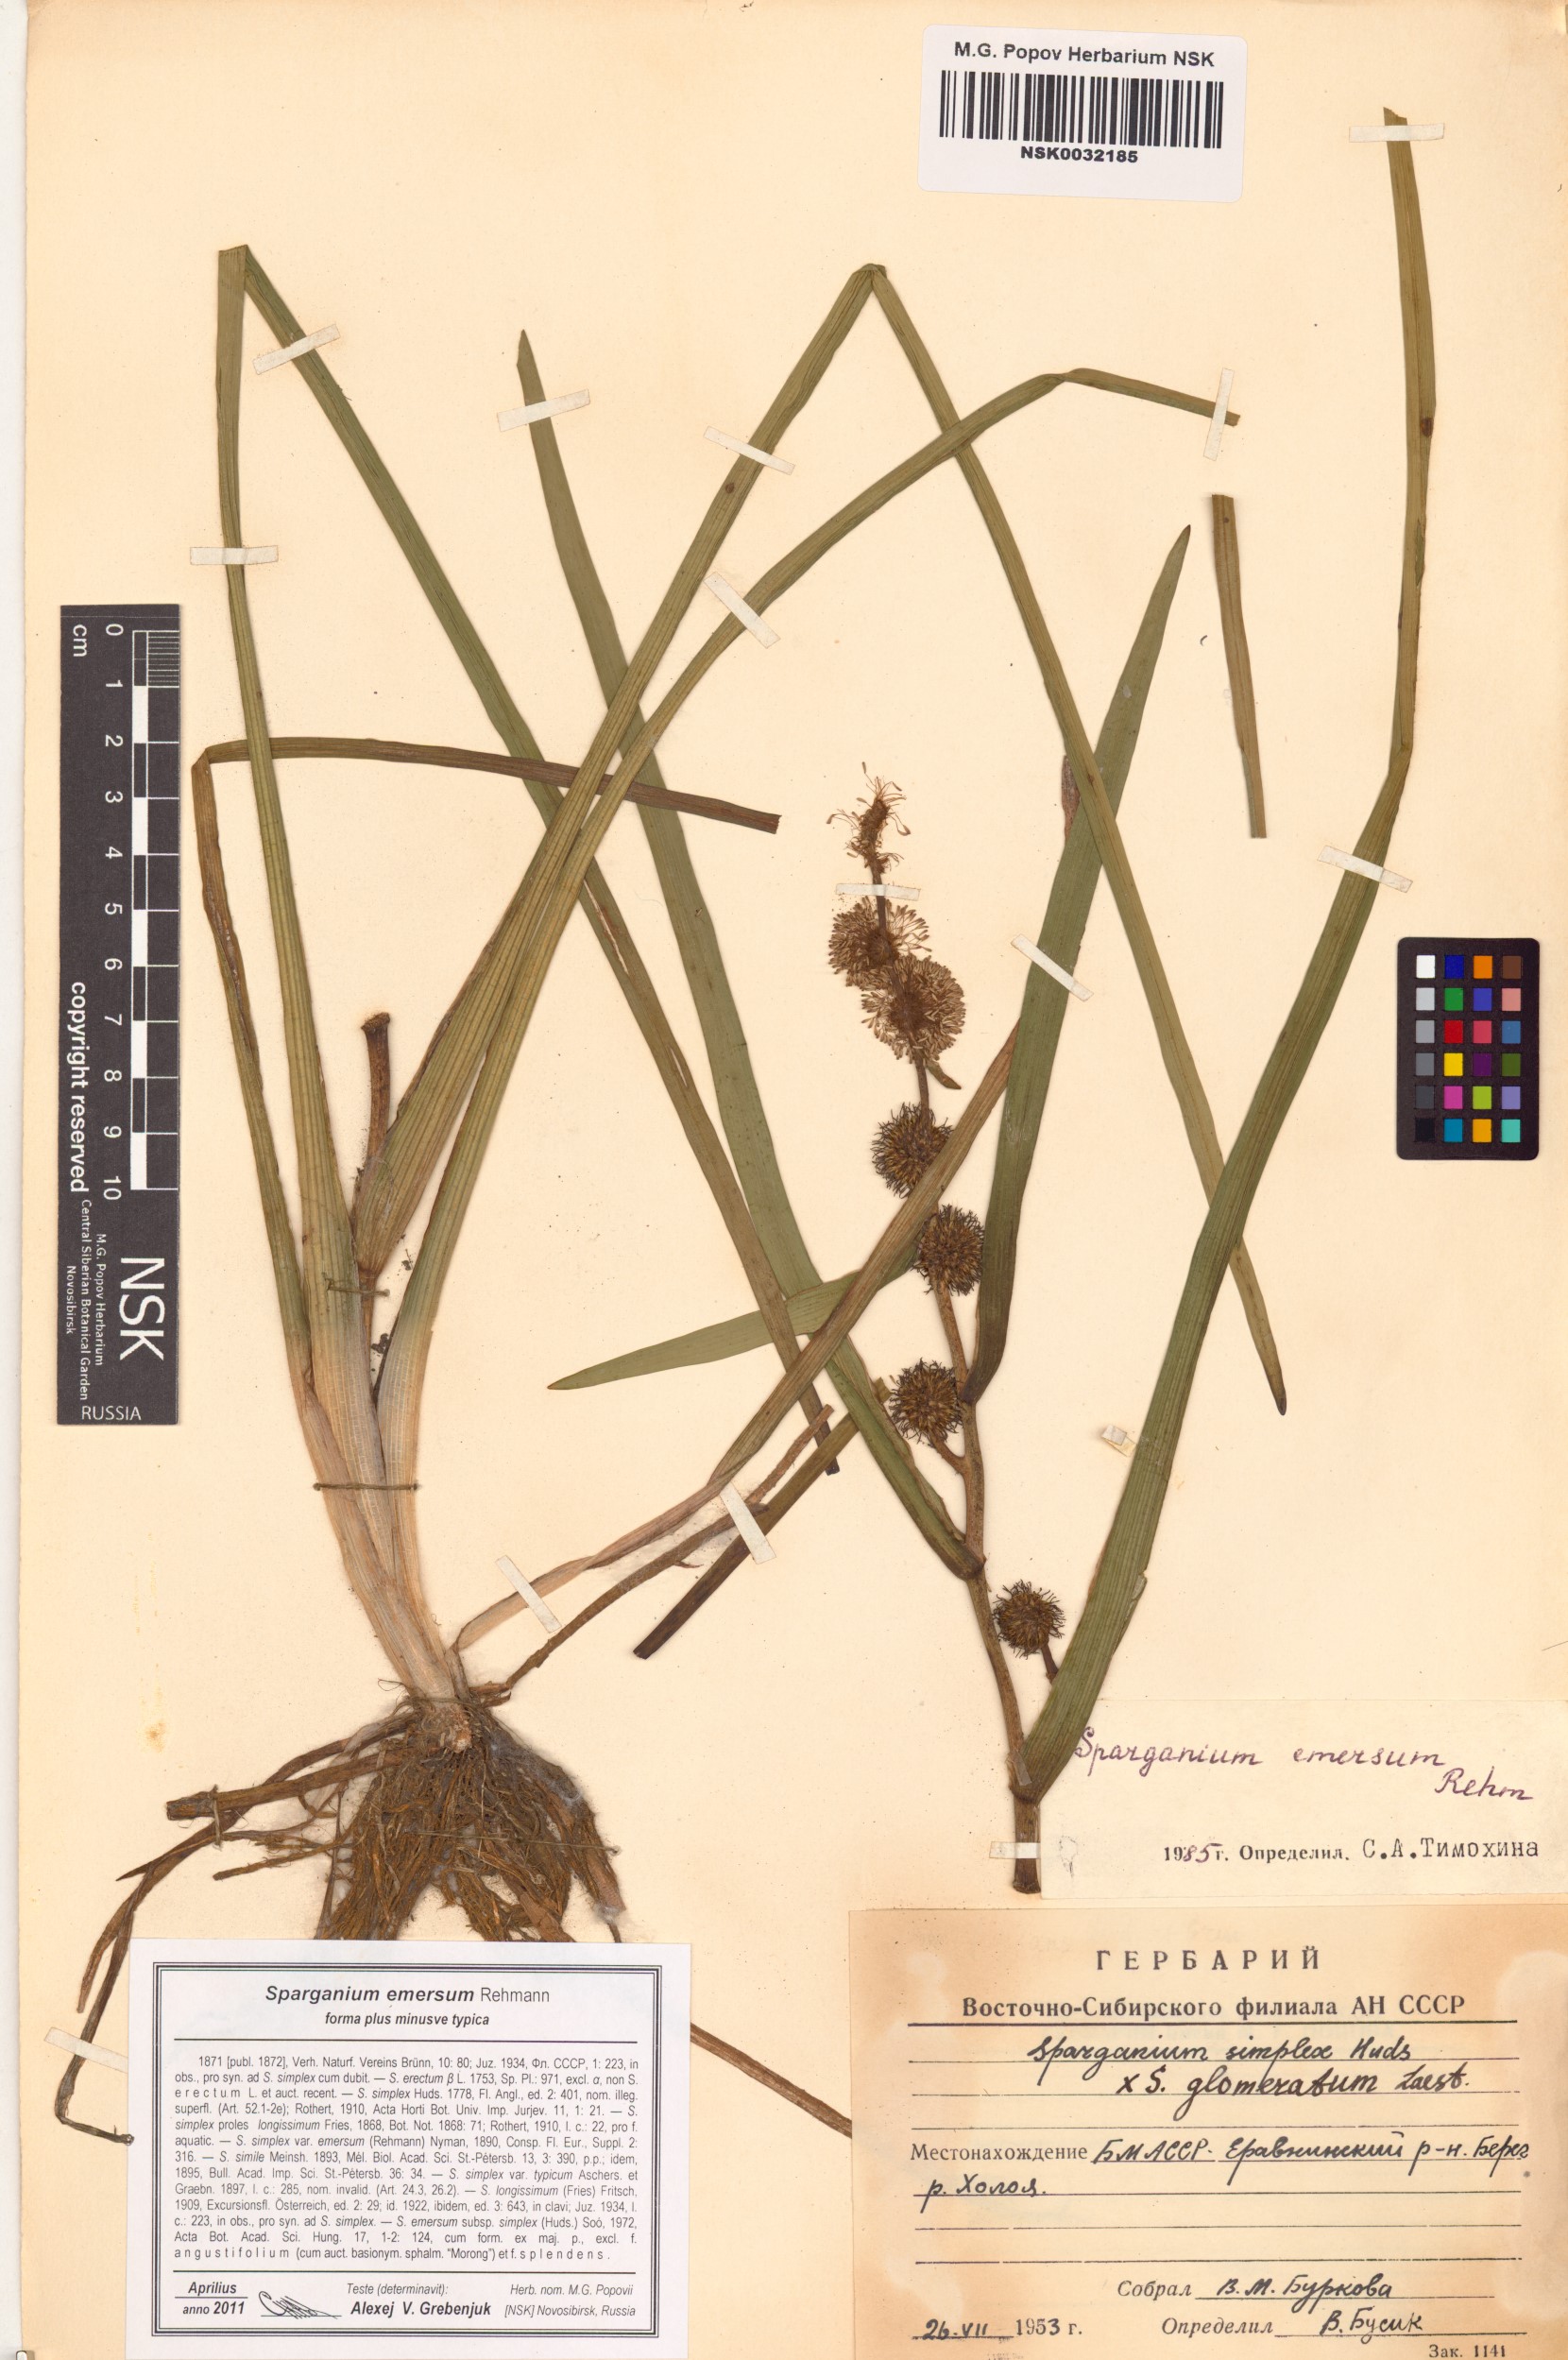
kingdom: Plantae
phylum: Tracheophyta
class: Liliopsida
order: Poales
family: Typhaceae
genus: Sparganium
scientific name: Sparganium emersum
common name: Unbranched bur-reed
